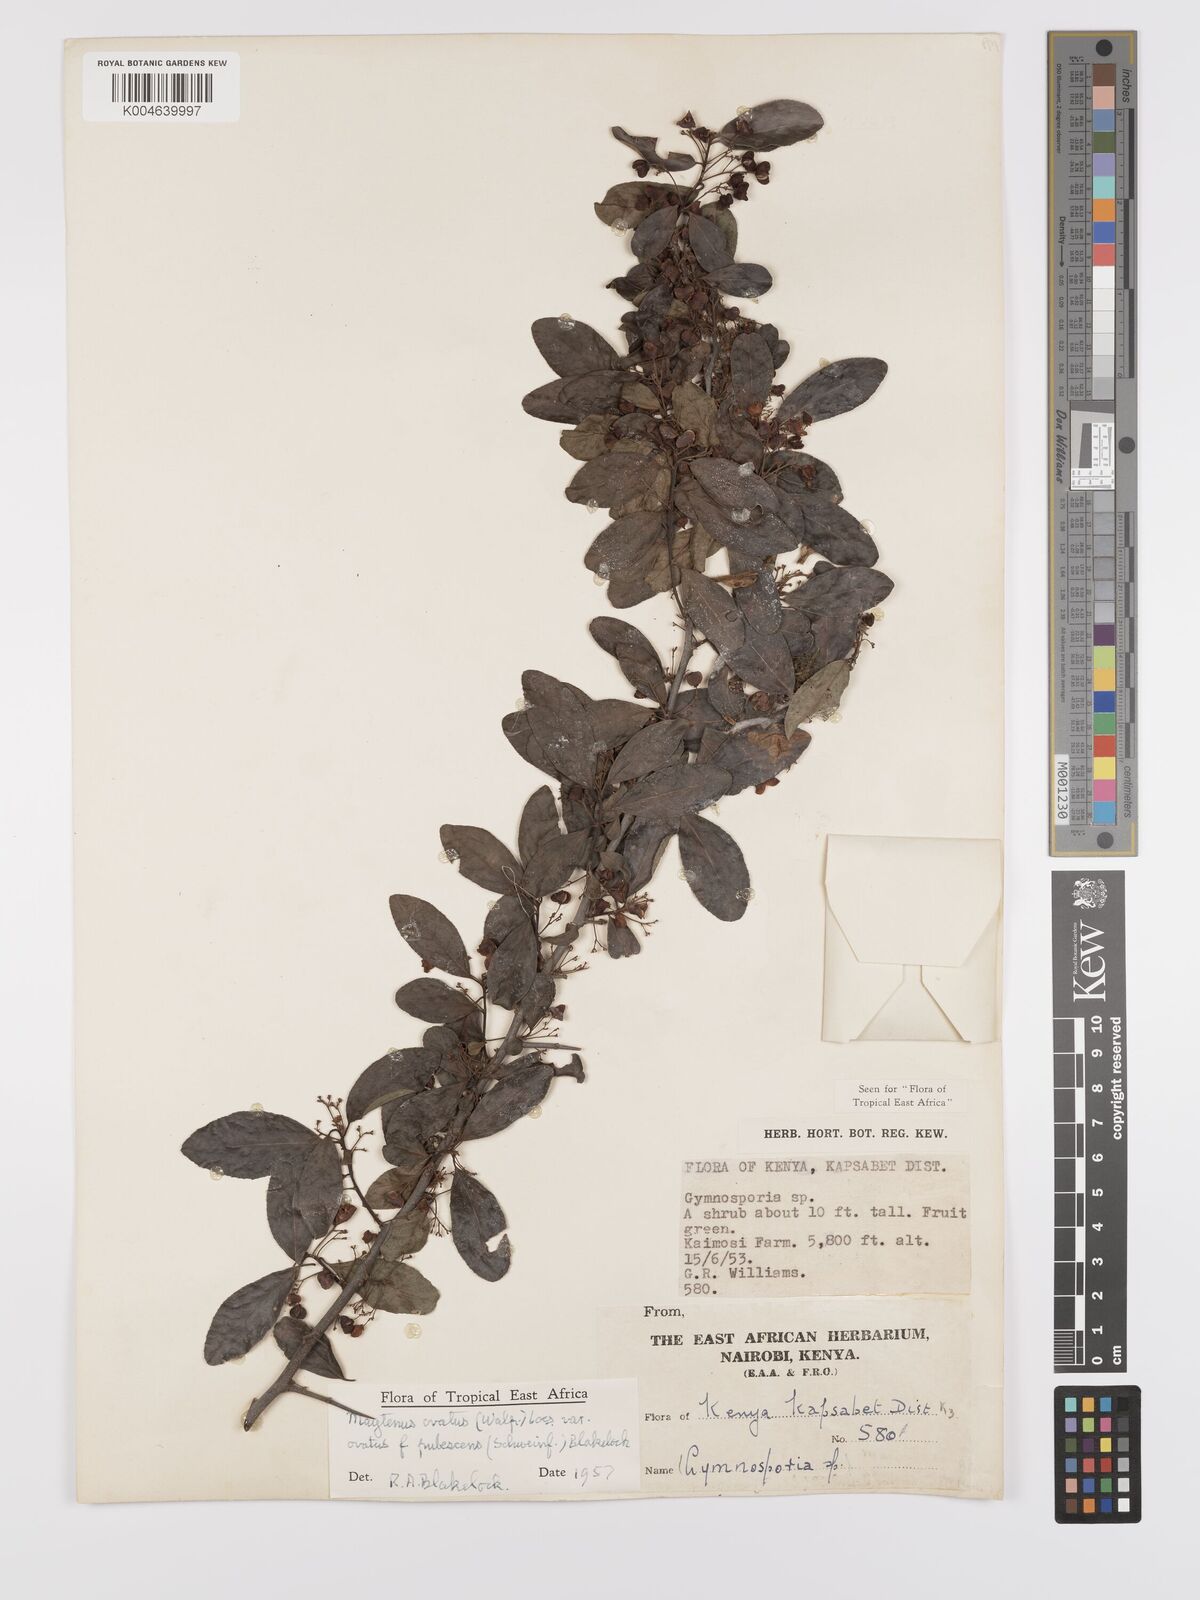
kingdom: Plantae
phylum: Tracheophyta
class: Magnoliopsida
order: Celastrales
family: Celastraceae
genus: Gymnosporia
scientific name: Gymnosporia arbutifolia
